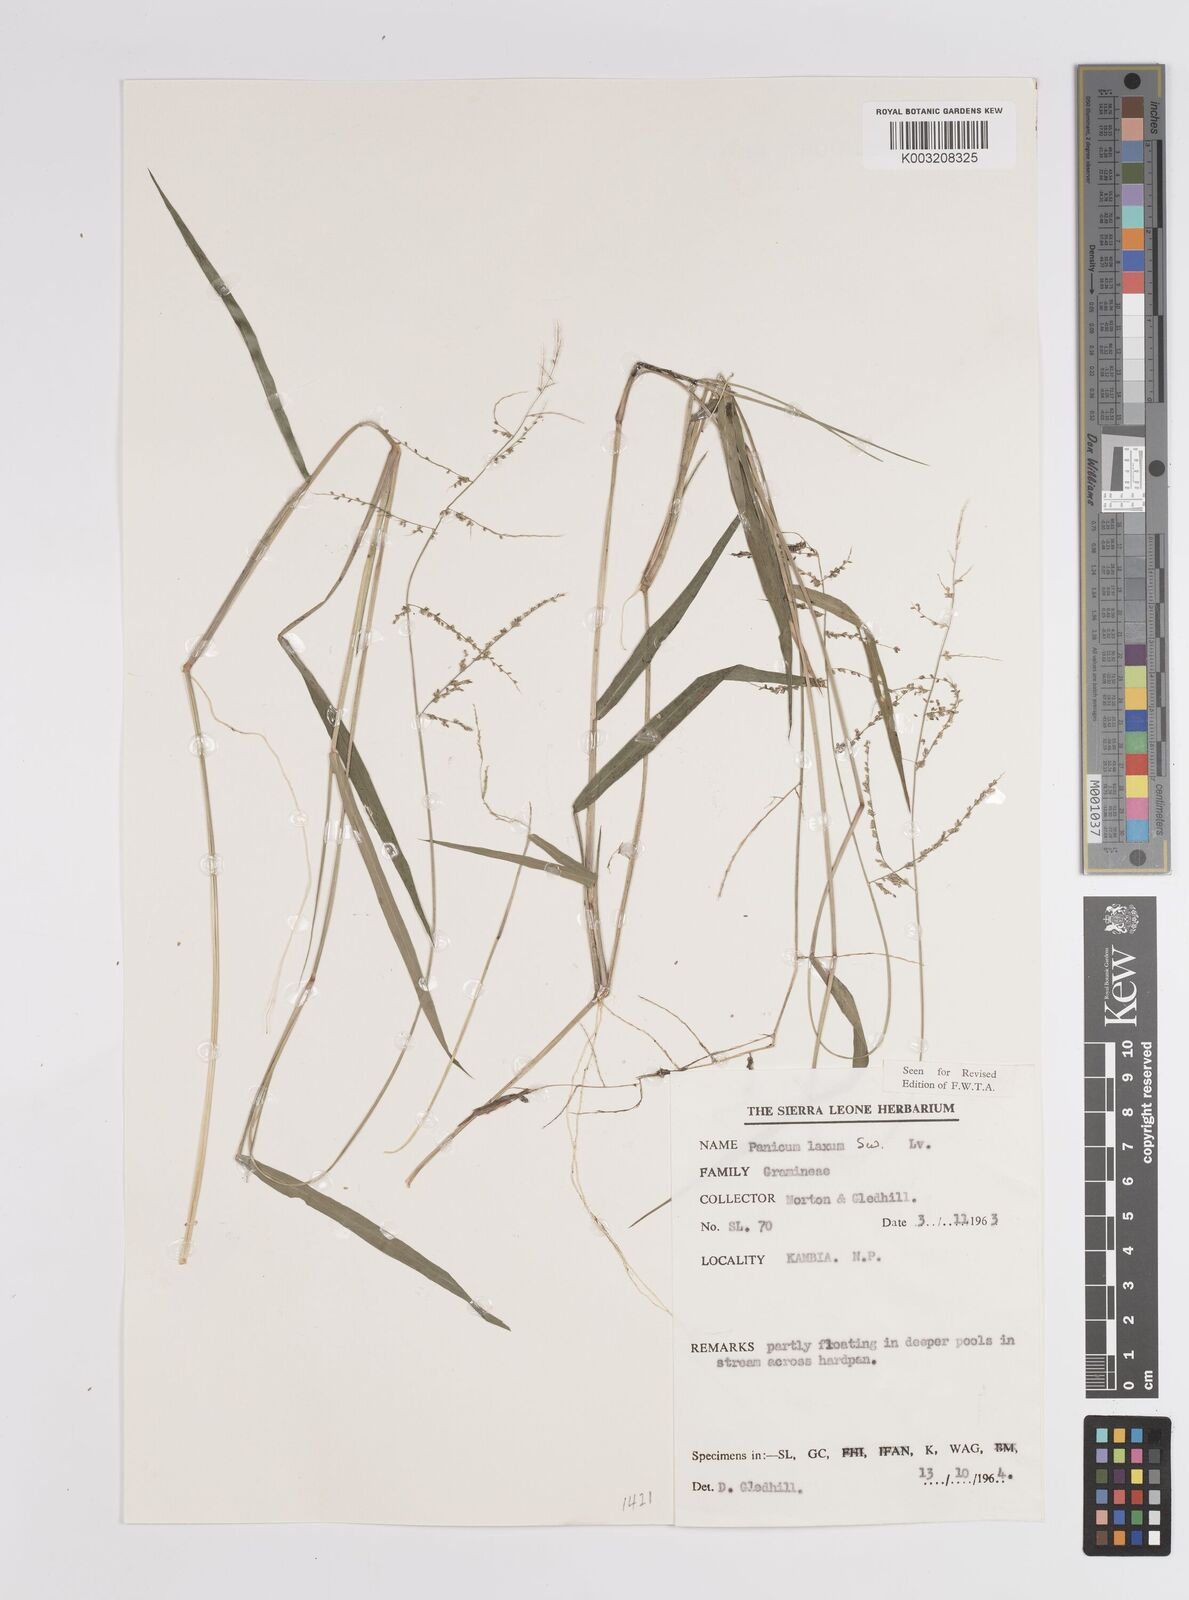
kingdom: Plantae
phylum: Tracheophyta
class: Liliopsida
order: Poales
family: Poaceae
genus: Steinchisma
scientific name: Steinchisma laxum
